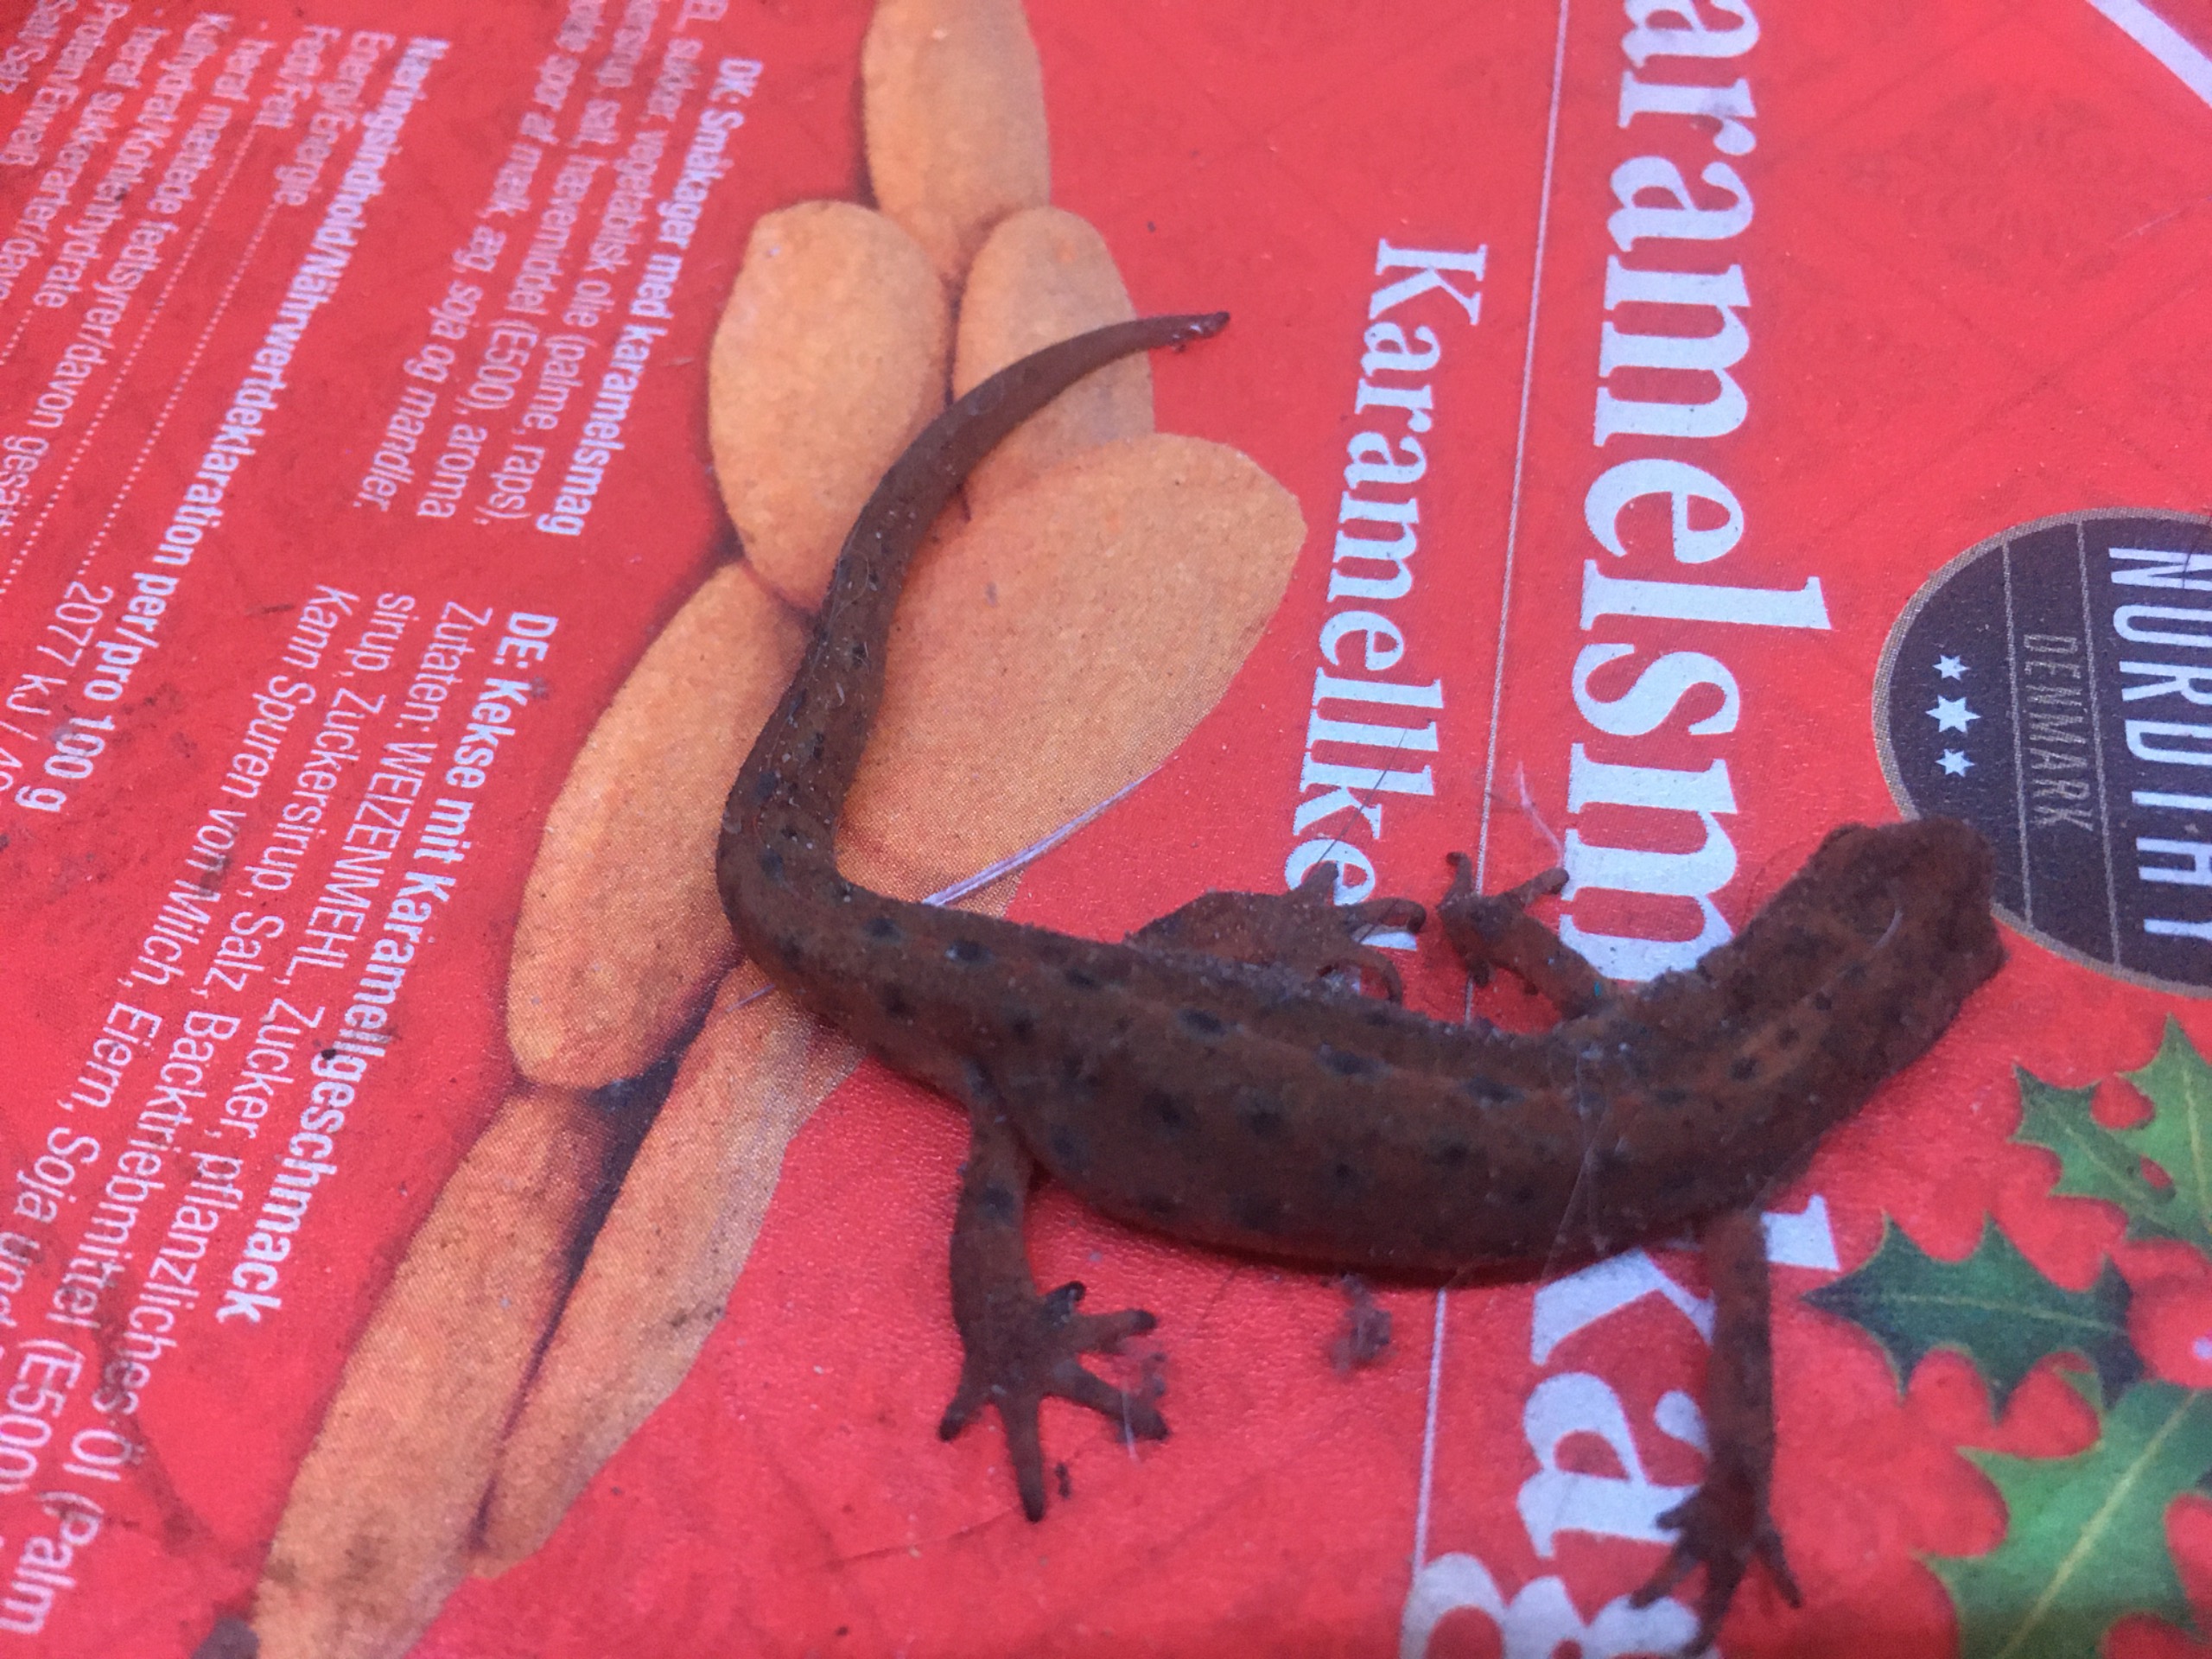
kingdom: Animalia
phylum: Chordata
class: Amphibia
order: Caudata
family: Salamandridae
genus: Lissotriton
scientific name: Lissotriton vulgaris
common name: Lille vandsalamander
